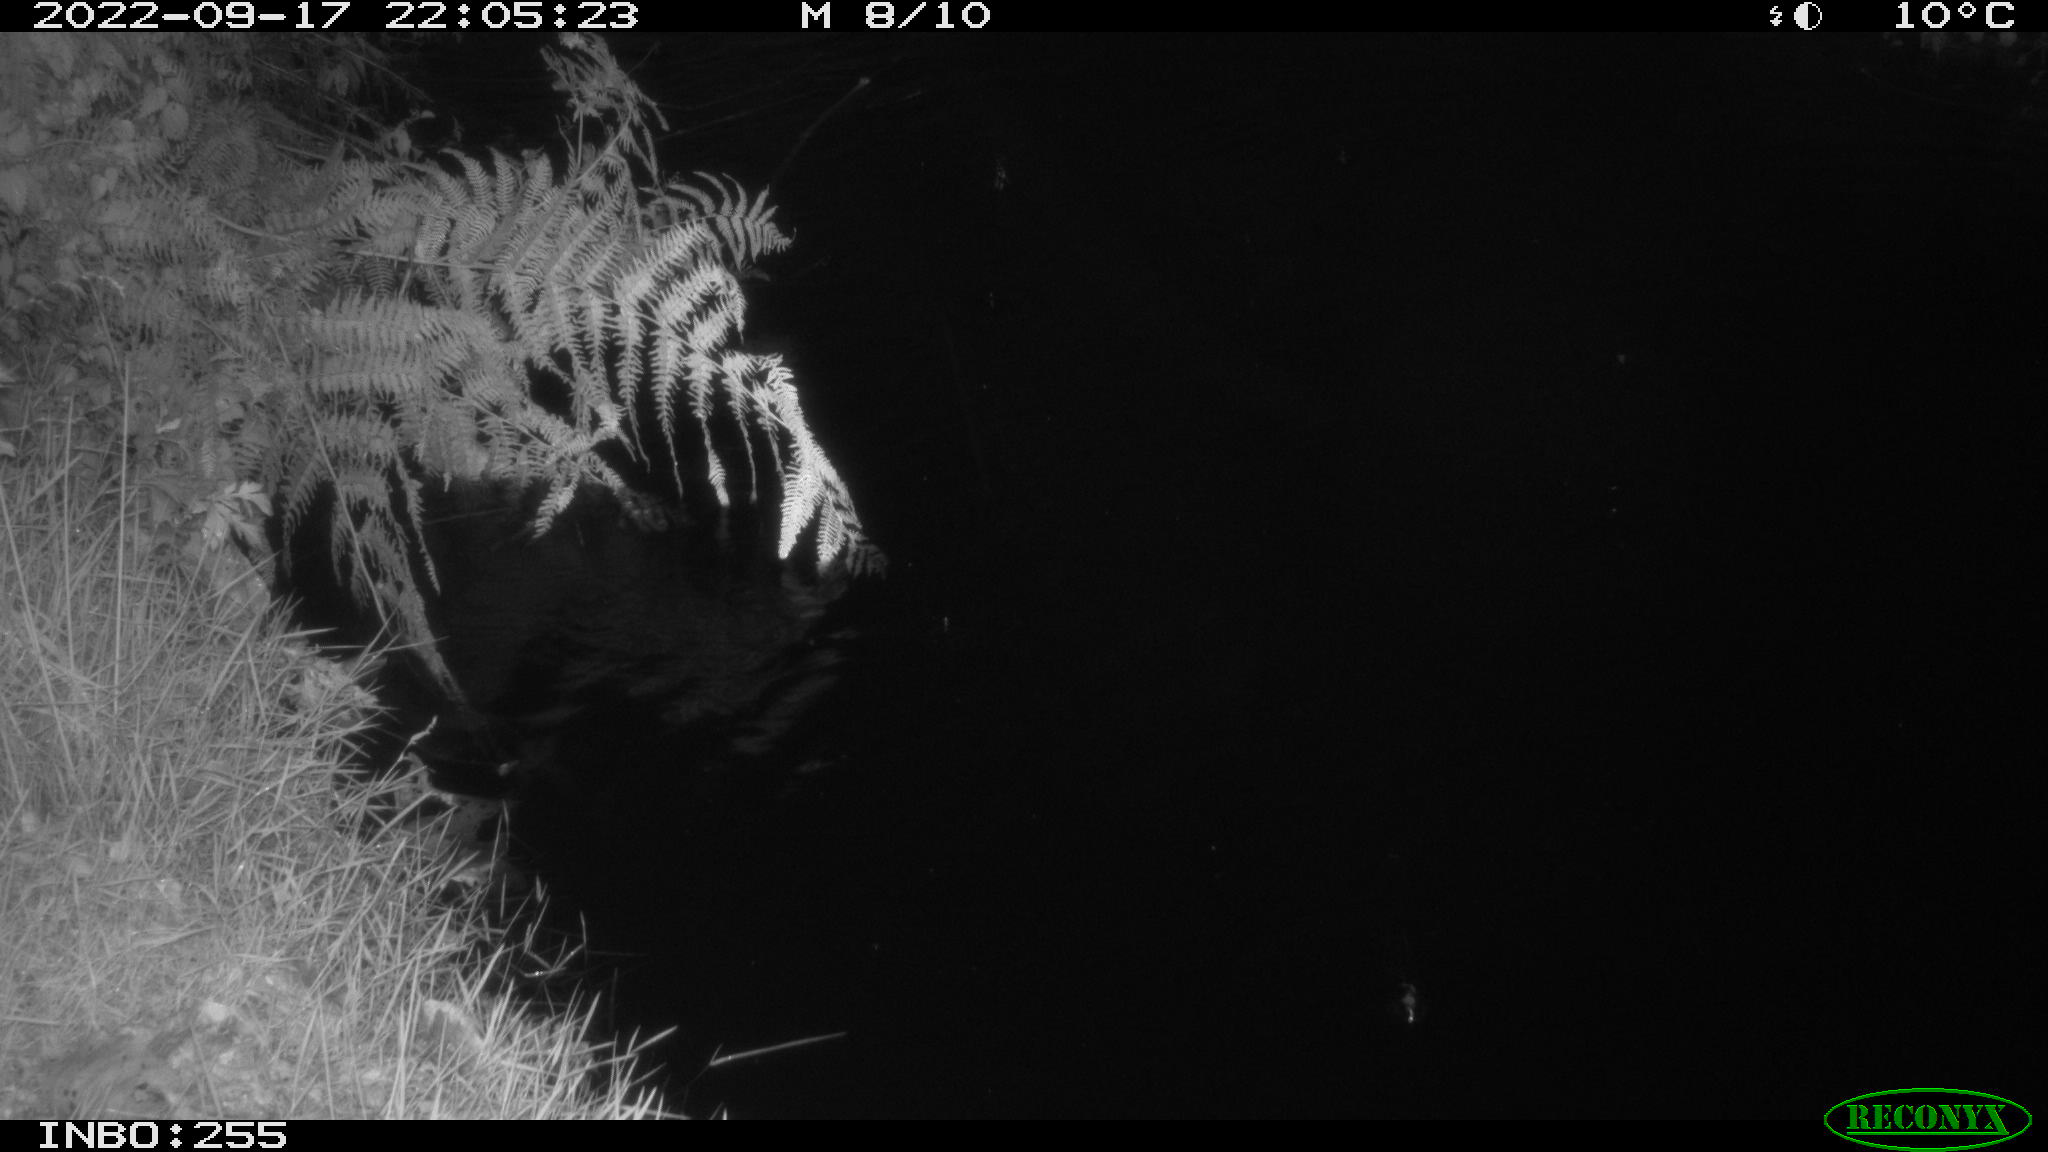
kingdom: Animalia
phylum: Chordata
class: Mammalia
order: Rodentia
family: Muridae
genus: Rattus
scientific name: Rattus norvegicus
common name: Brown rat
